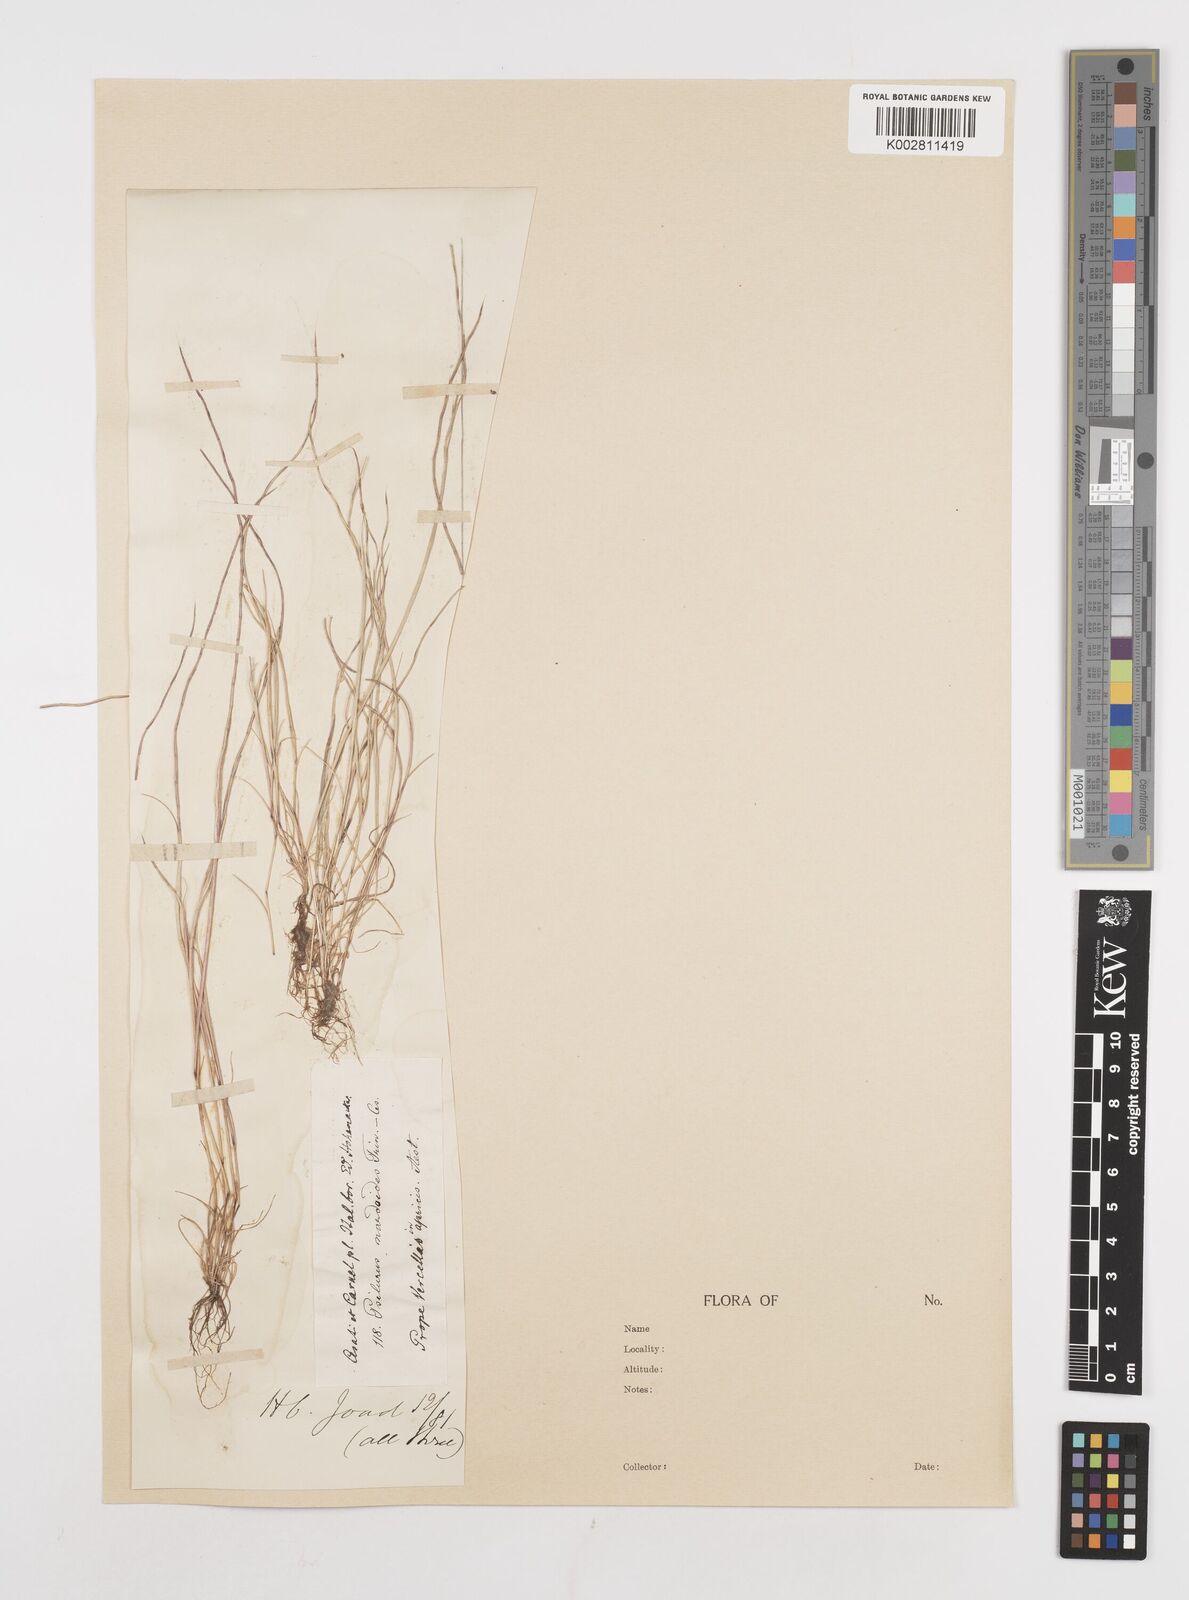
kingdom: Plantae
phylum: Tracheophyta
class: Liliopsida
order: Poales
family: Poaceae
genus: Festuca
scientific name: Festuca incurva
